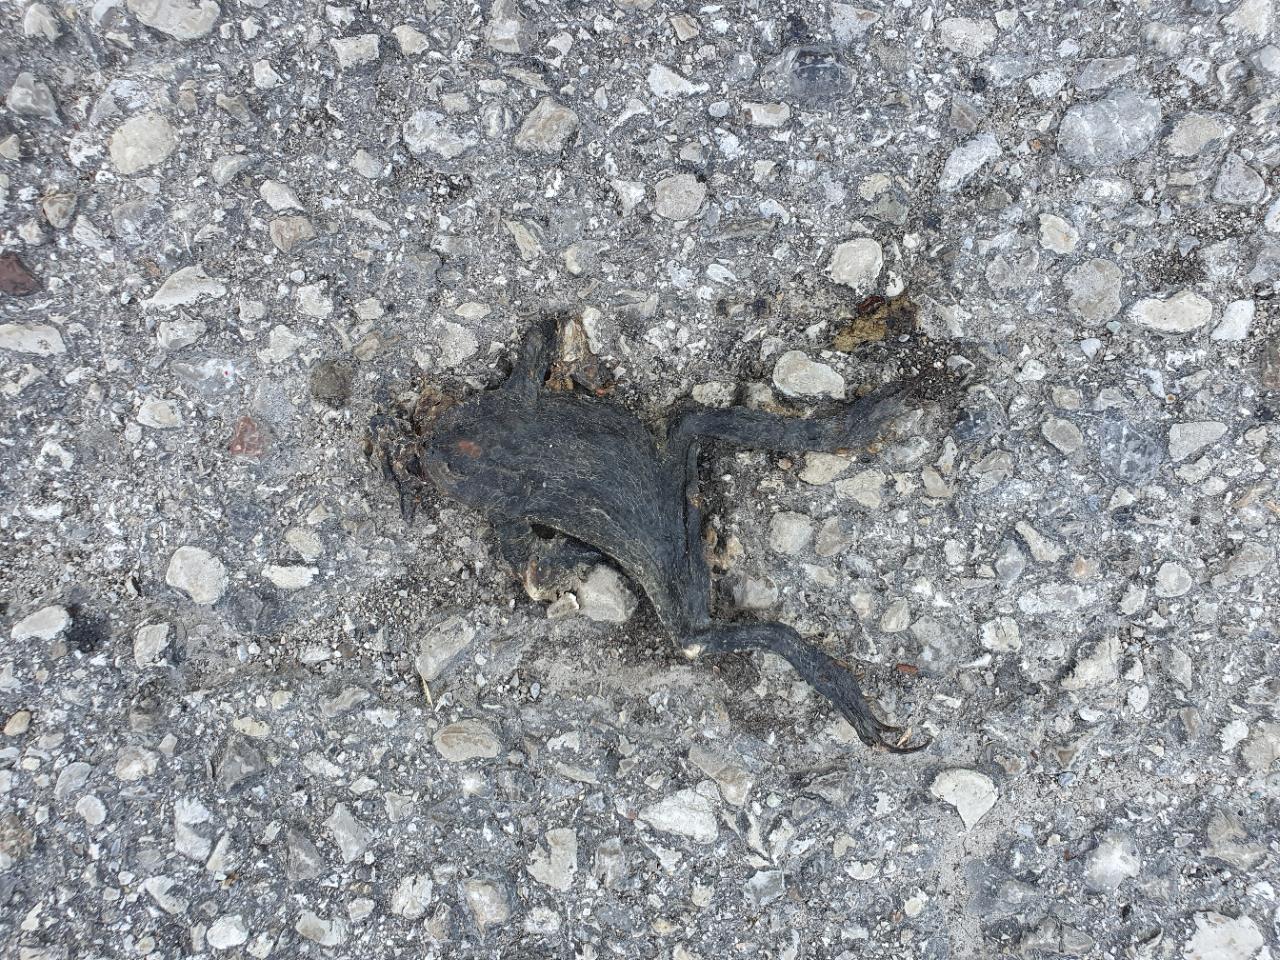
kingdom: Animalia
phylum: Chordata
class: Amphibia
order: Anura
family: Bufonidae
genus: Bufo
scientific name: Bufo bufo
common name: Common toad
